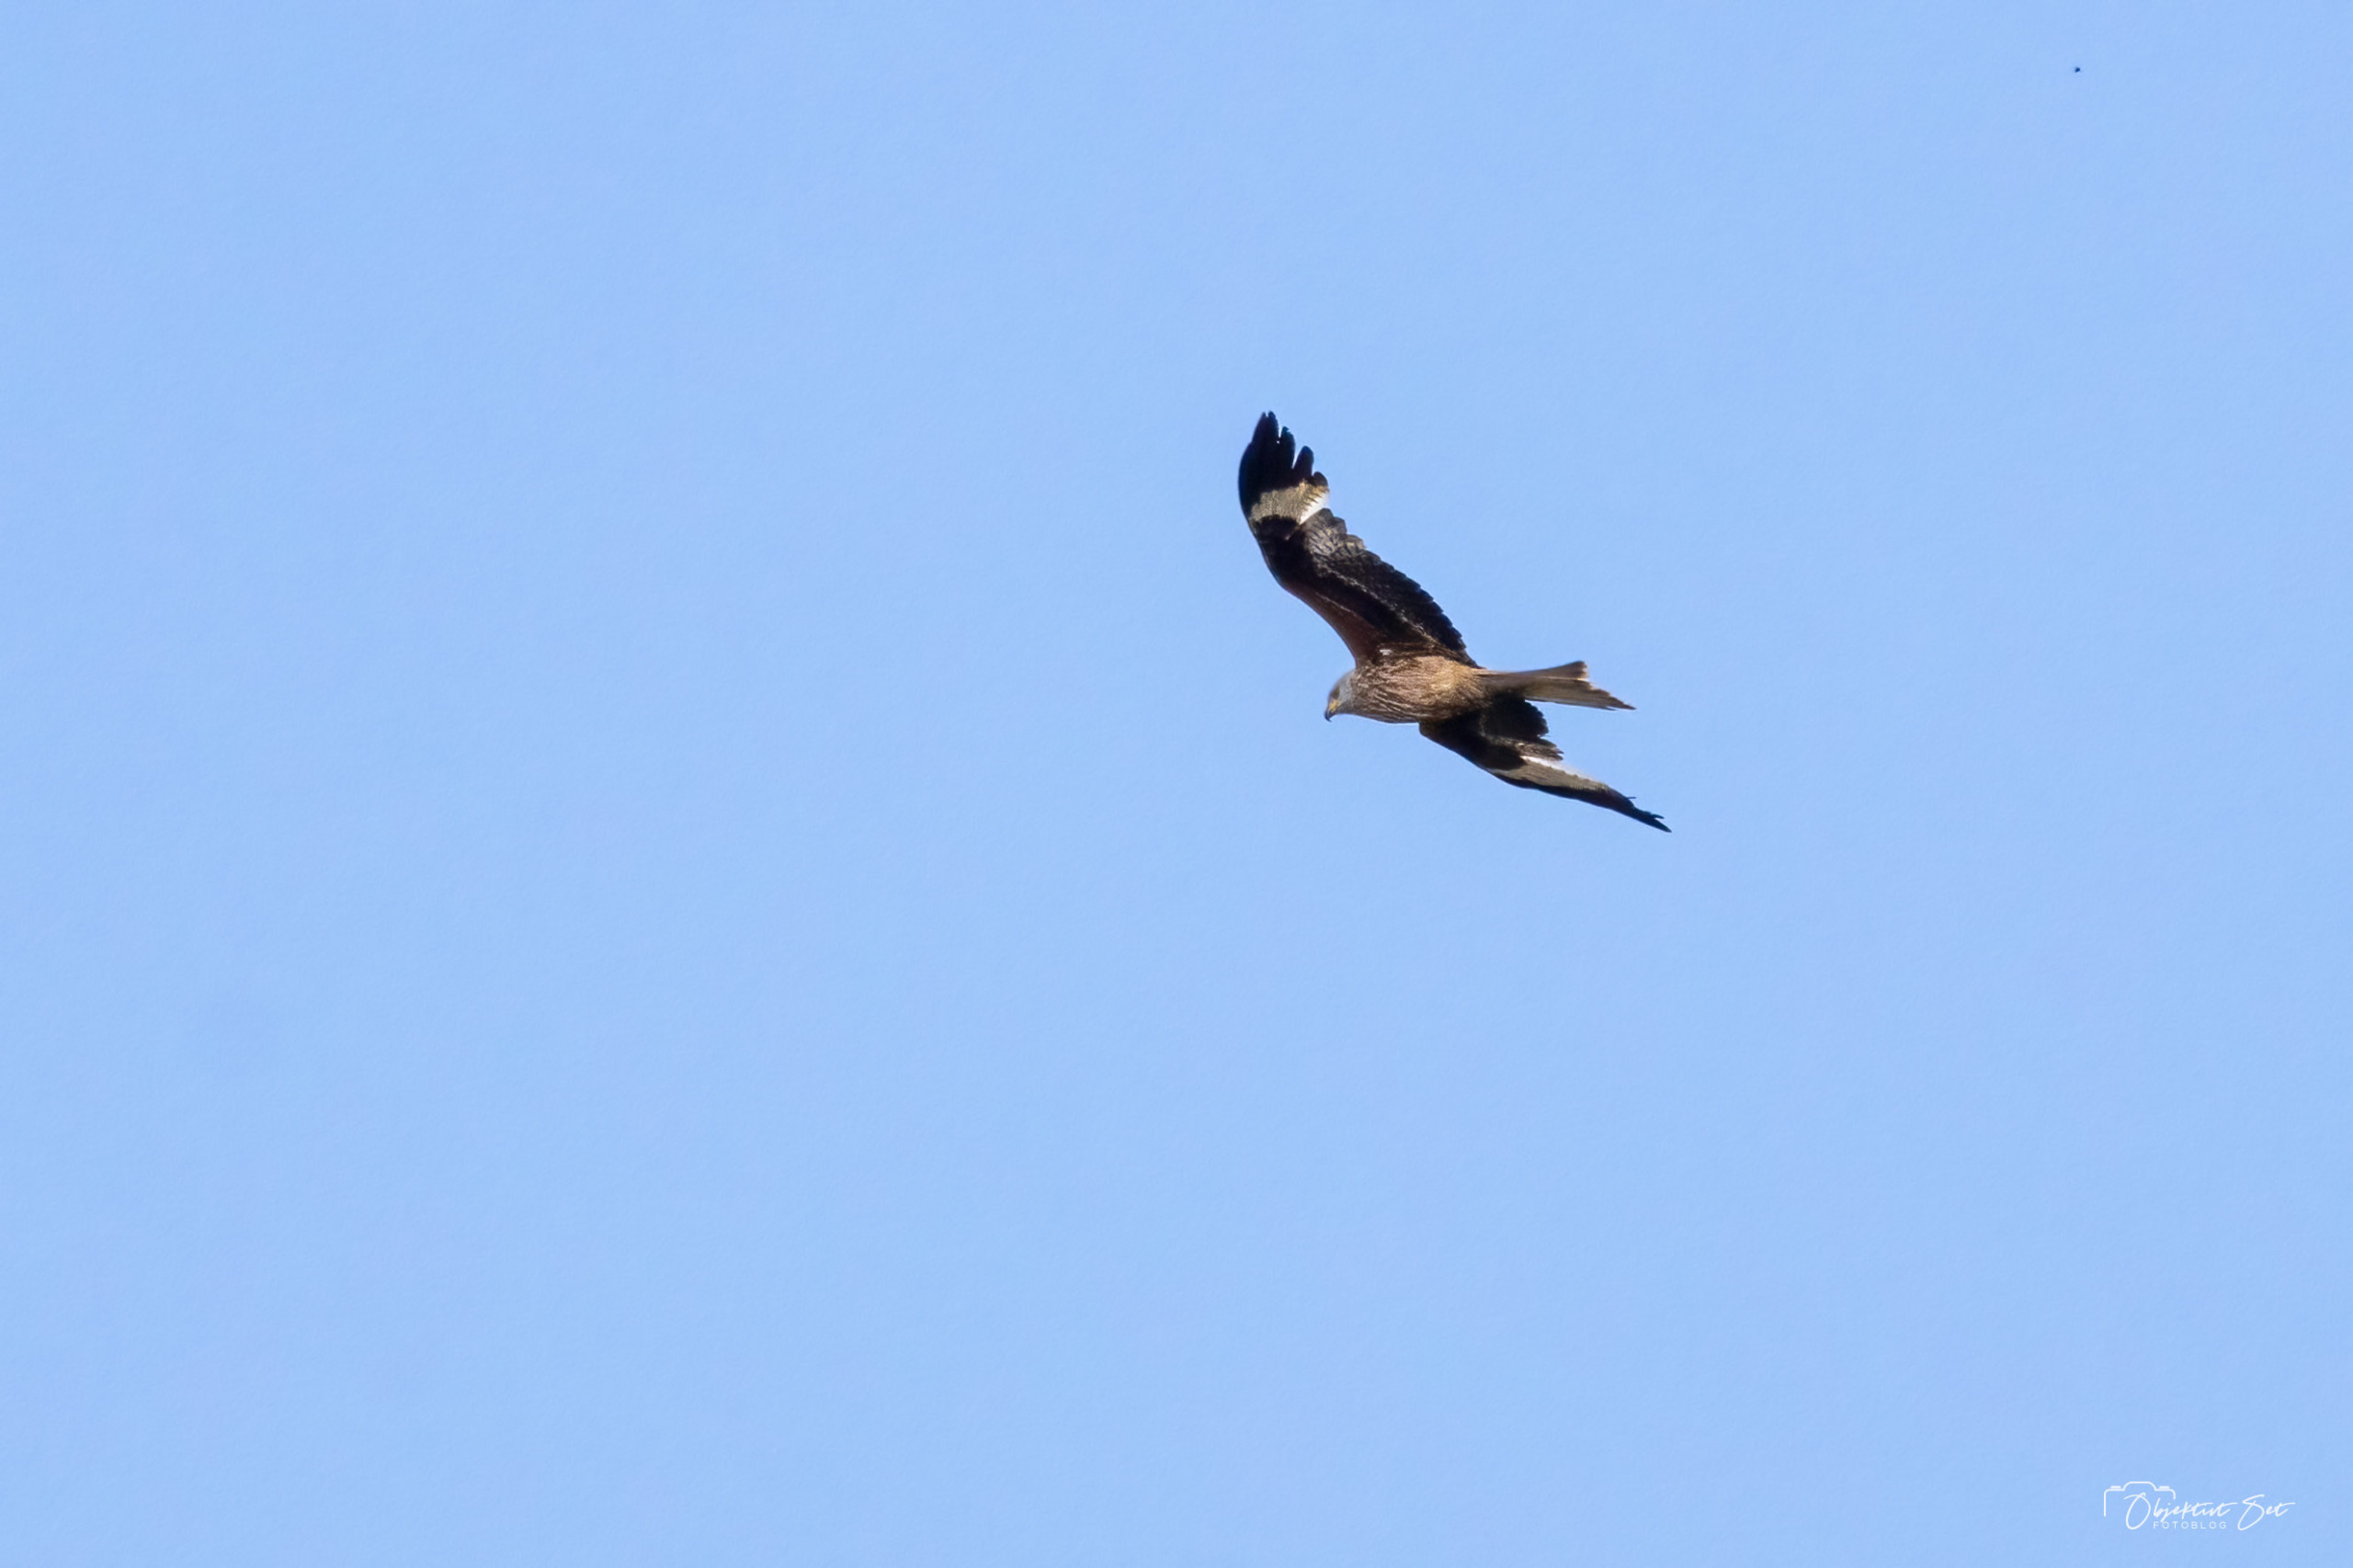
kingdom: Animalia
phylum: Chordata
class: Aves
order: Accipitriformes
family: Accipitridae
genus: Milvus
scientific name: Milvus milvus
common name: Rød glente
